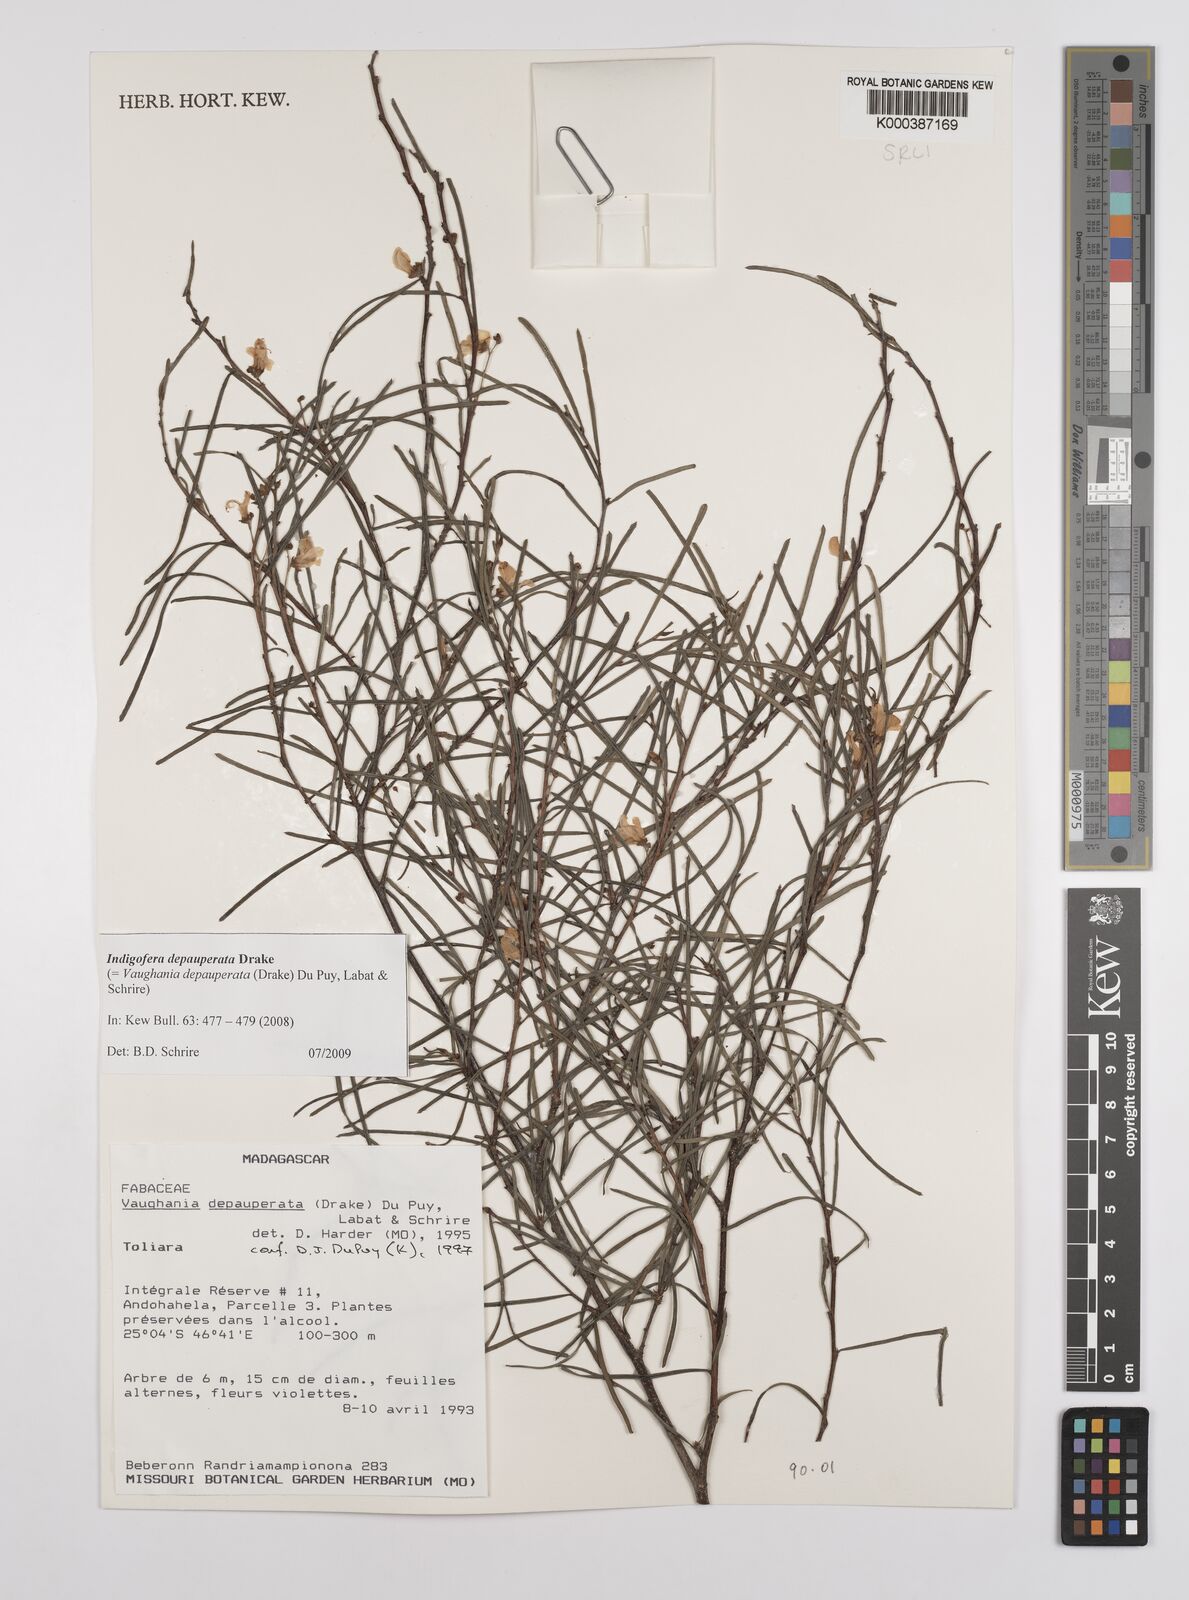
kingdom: Plantae
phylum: Tracheophyta
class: Magnoliopsida
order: Fabales
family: Fabaceae
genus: Vigna
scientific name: Vigna microsperma
